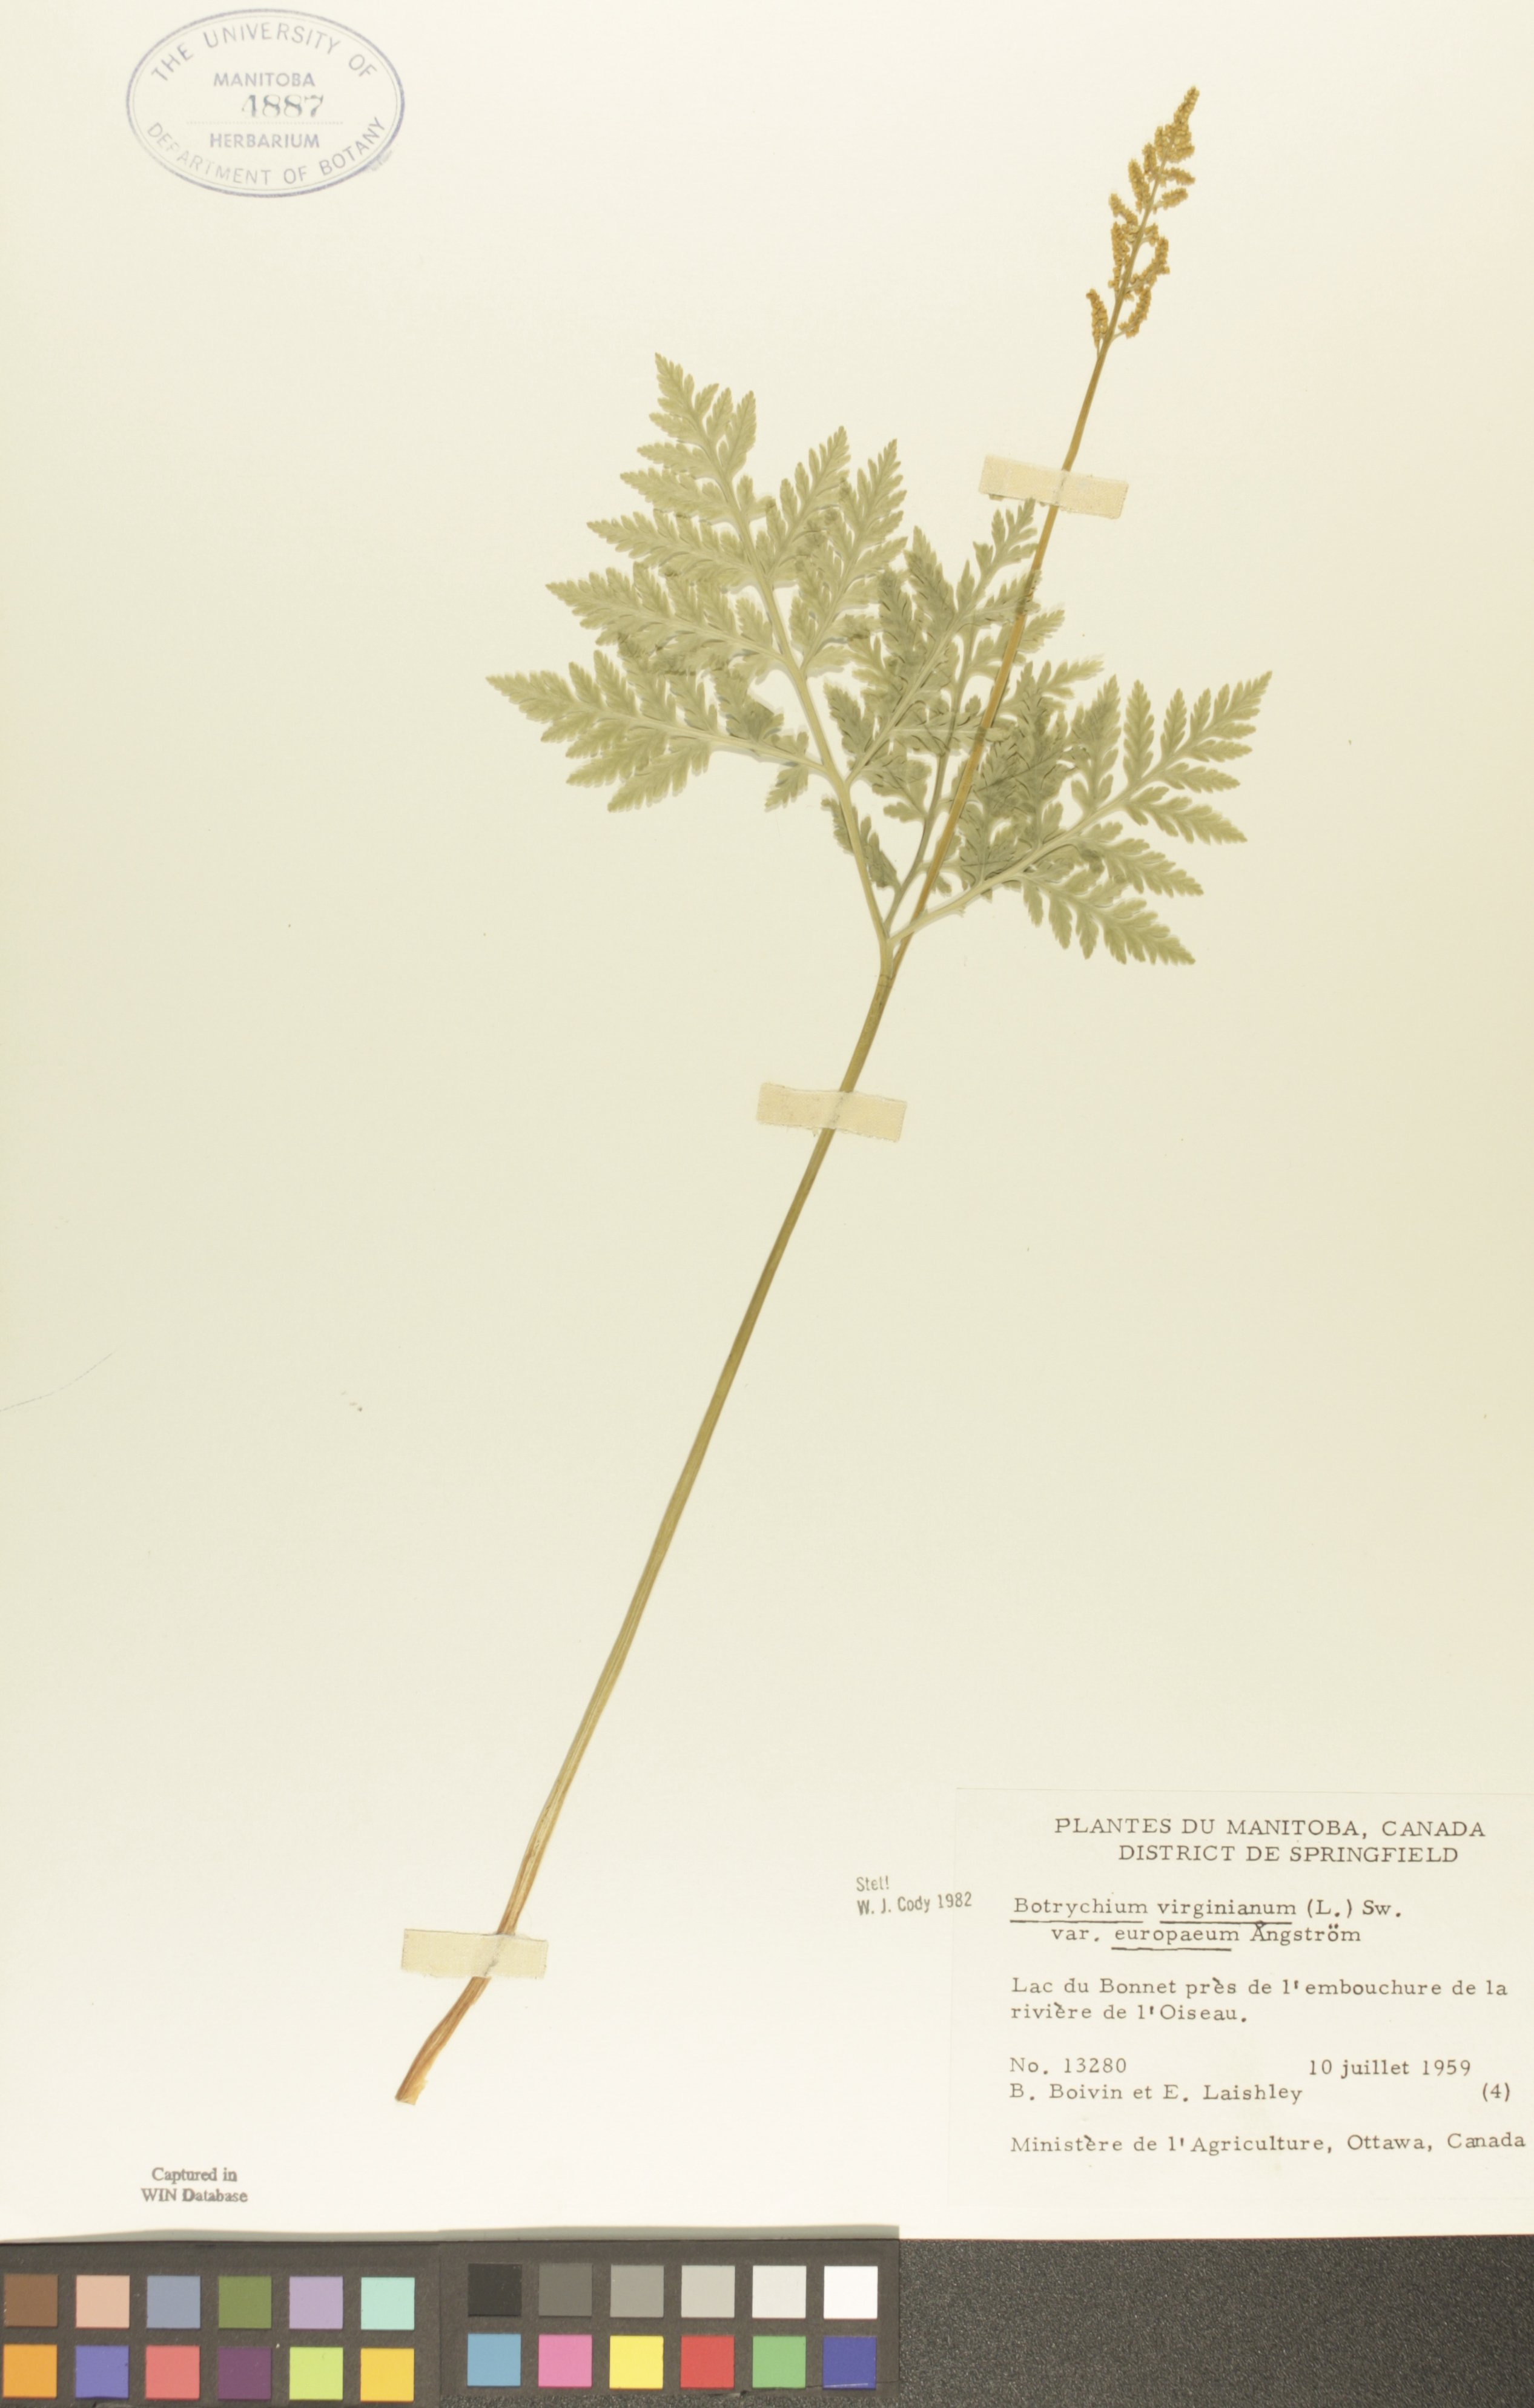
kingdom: Plantae
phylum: Tracheophyta
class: Polypodiopsida
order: Ophioglossales
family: Ophioglossaceae
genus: Botrypus
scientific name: Botrypus virginianus
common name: Common grapefern
